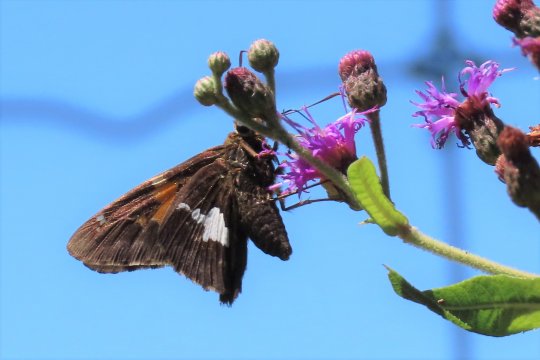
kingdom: Animalia
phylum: Arthropoda
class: Insecta
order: Lepidoptera
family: Hesperiidae
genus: Epargyreus
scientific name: Epargyreus clarus
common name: Silver-spotted Skipper
